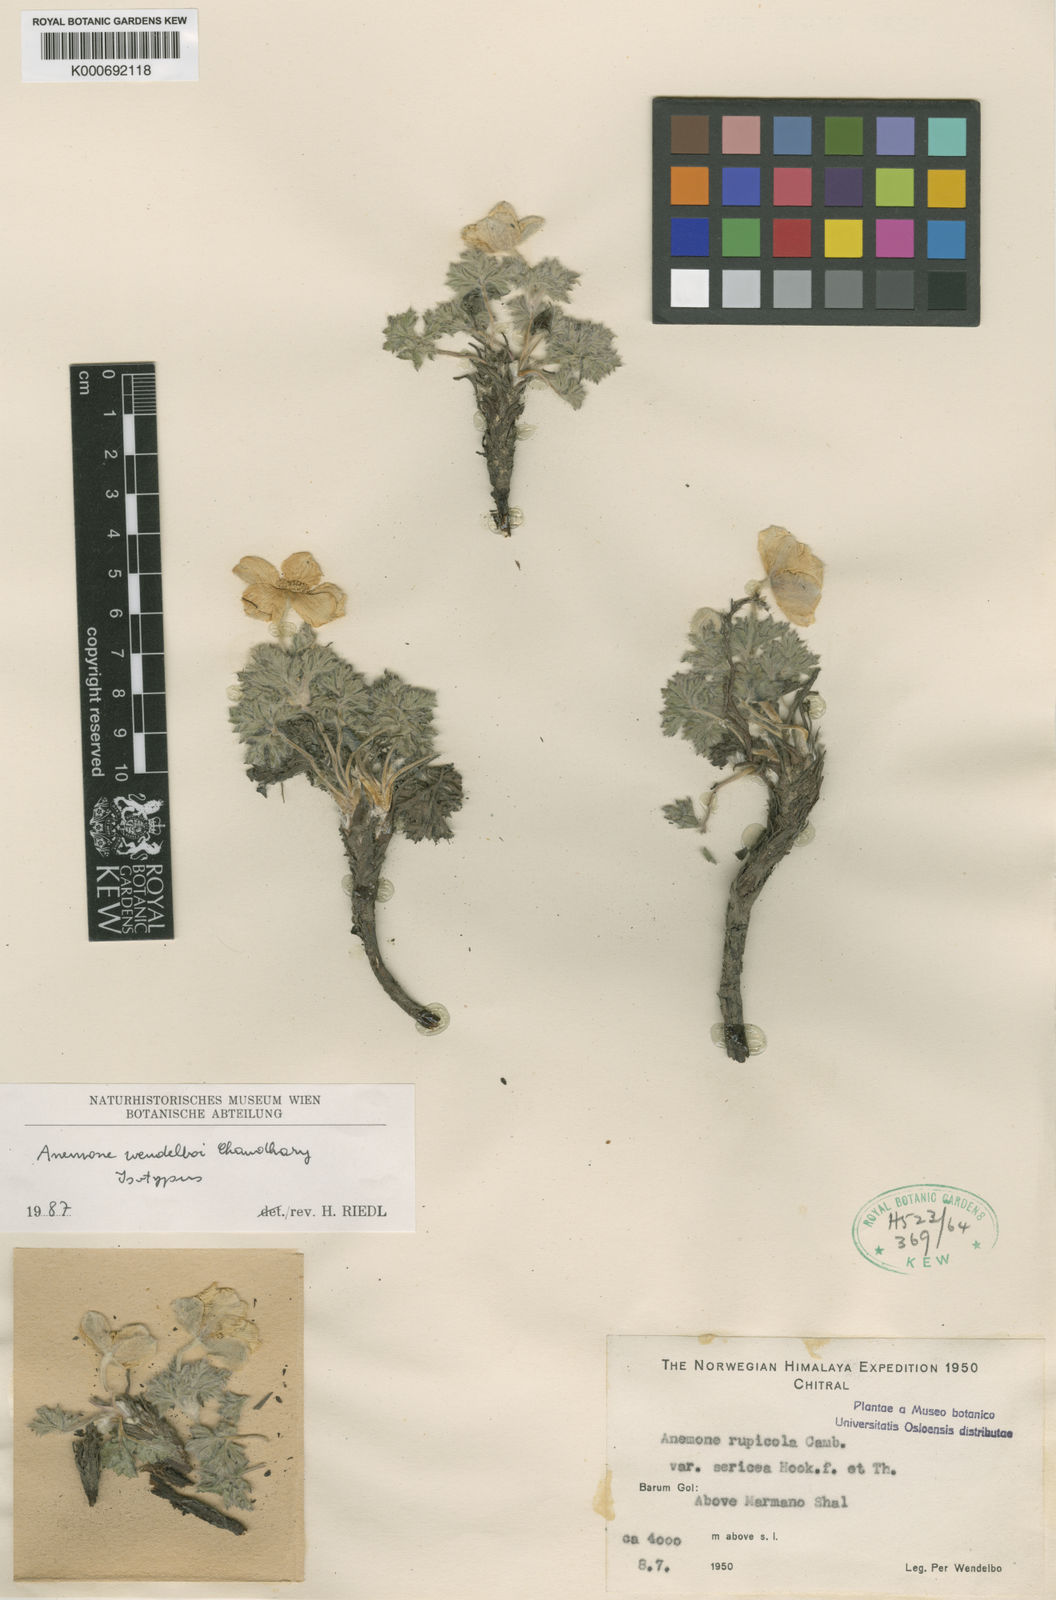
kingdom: Plantae
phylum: Tracheophyta
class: Magnoliopsida
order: Ranunculales
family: Ranunculaceae
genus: Anemone
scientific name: Anemone afghanica
